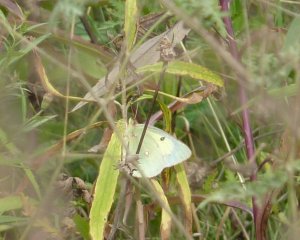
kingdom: Animalia
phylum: Arthropoda
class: Insecta
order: Lepidoptera
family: Pieridae
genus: Colias
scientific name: Colias philodice
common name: Clouded Sulphur
